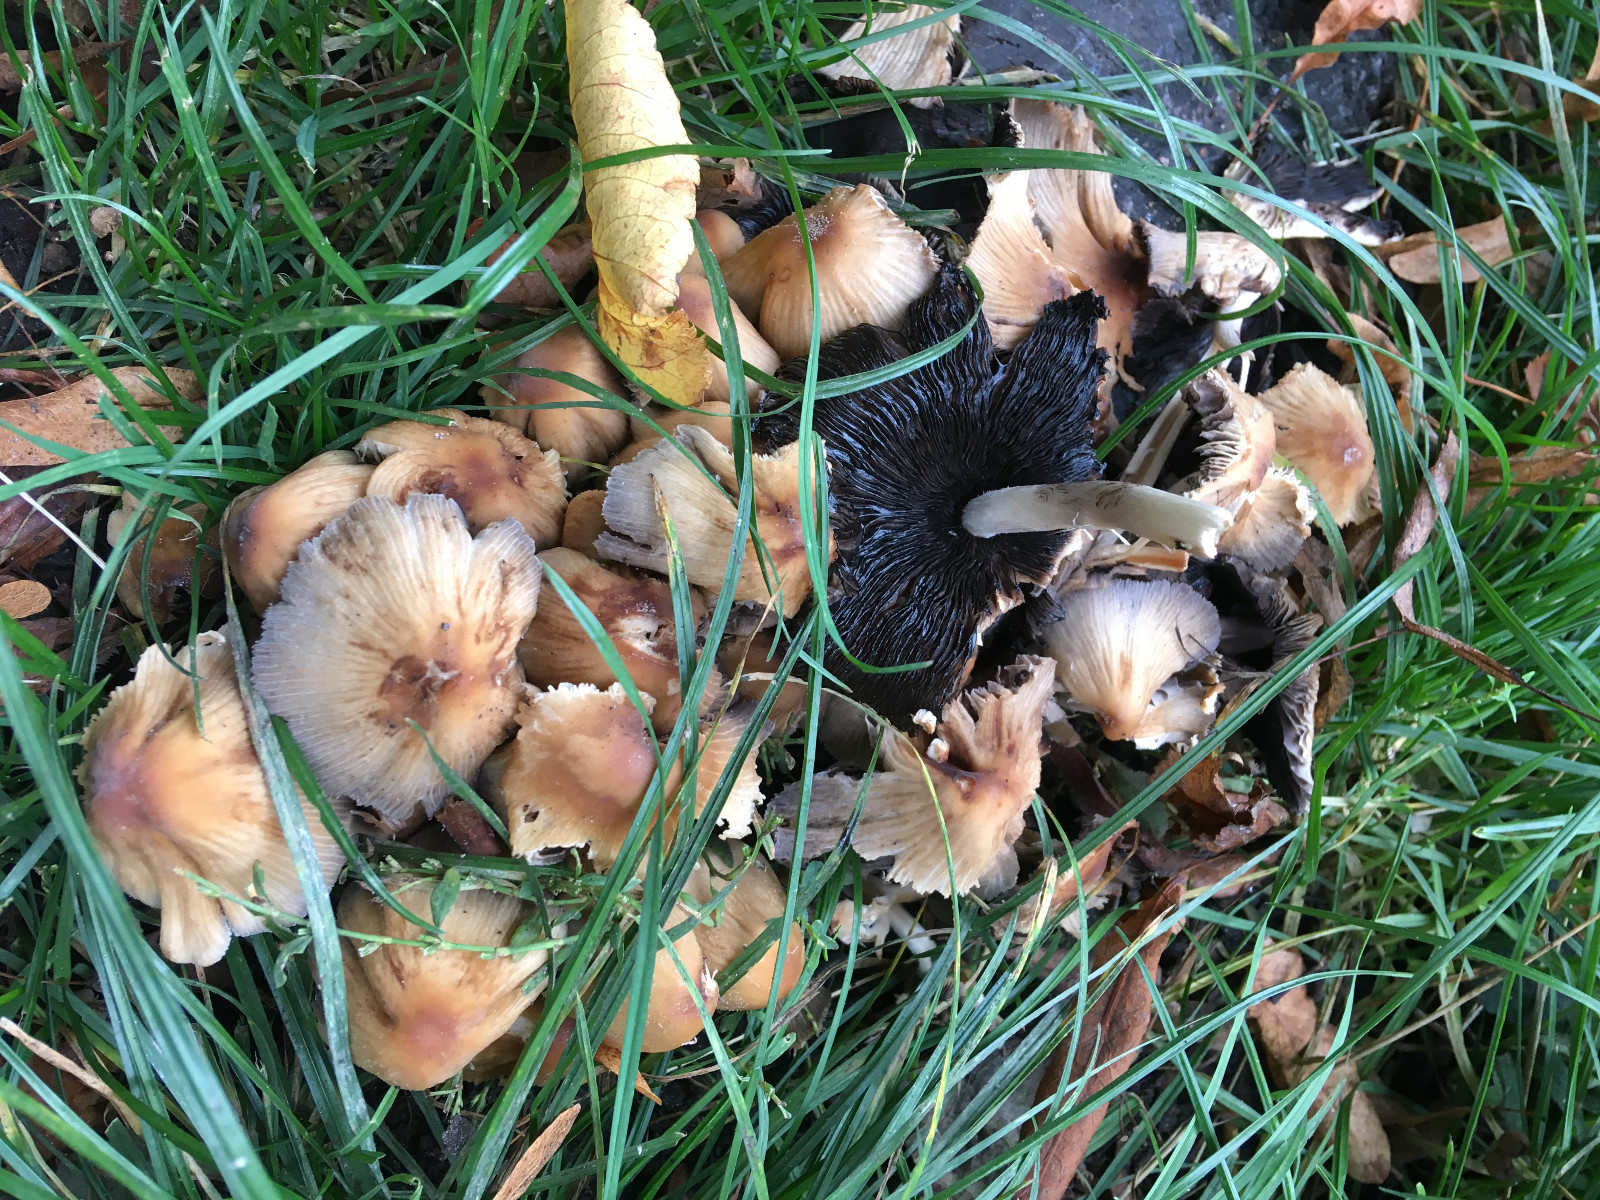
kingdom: Fungi
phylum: Basidiomycota
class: Agaricomycetes
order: Agaricales
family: Psathyrellaceae
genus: Coprinellus
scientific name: Coprinellus micaceus
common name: glimmer-blækhat
